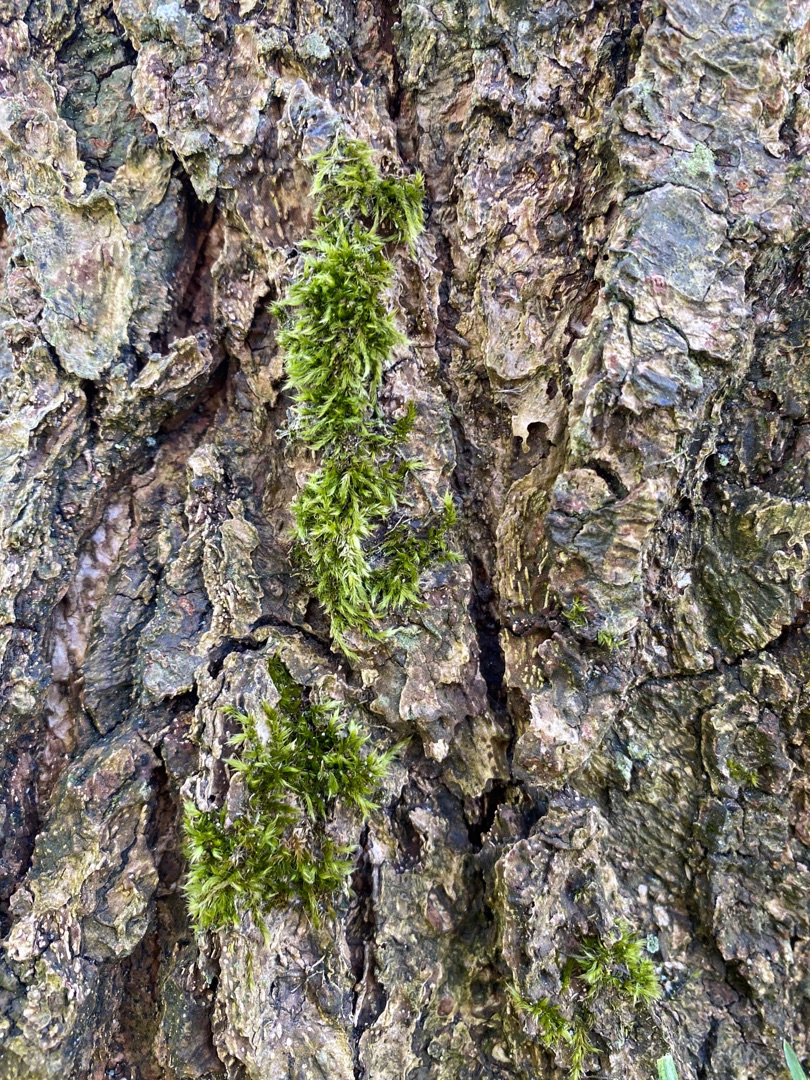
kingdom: Plantae
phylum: Bryophyta
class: Bryopsida
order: Hypnales
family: Hypnaceae
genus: Hypnum
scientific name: Hypnum
